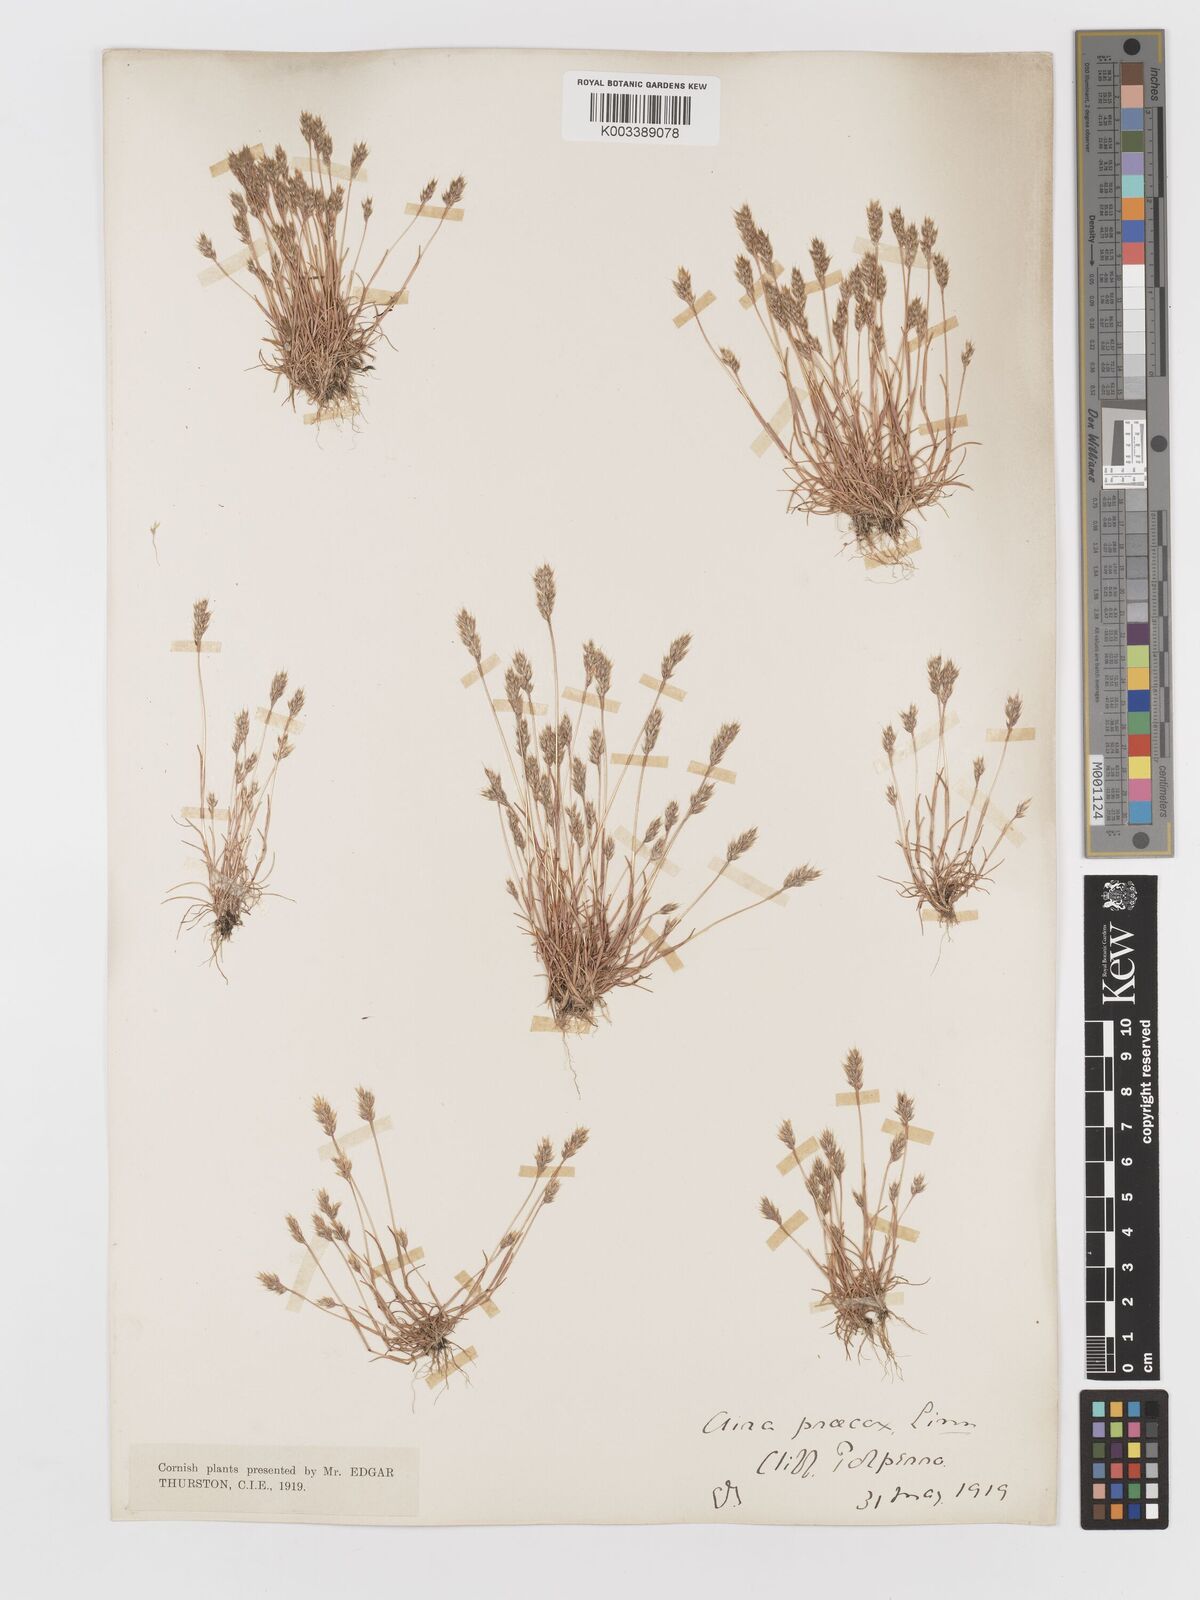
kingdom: Plantae
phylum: Tracheophyta
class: Liliopsida
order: Poales
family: Poaceae
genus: Aira
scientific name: Aira praecox
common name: Early hair-grass
